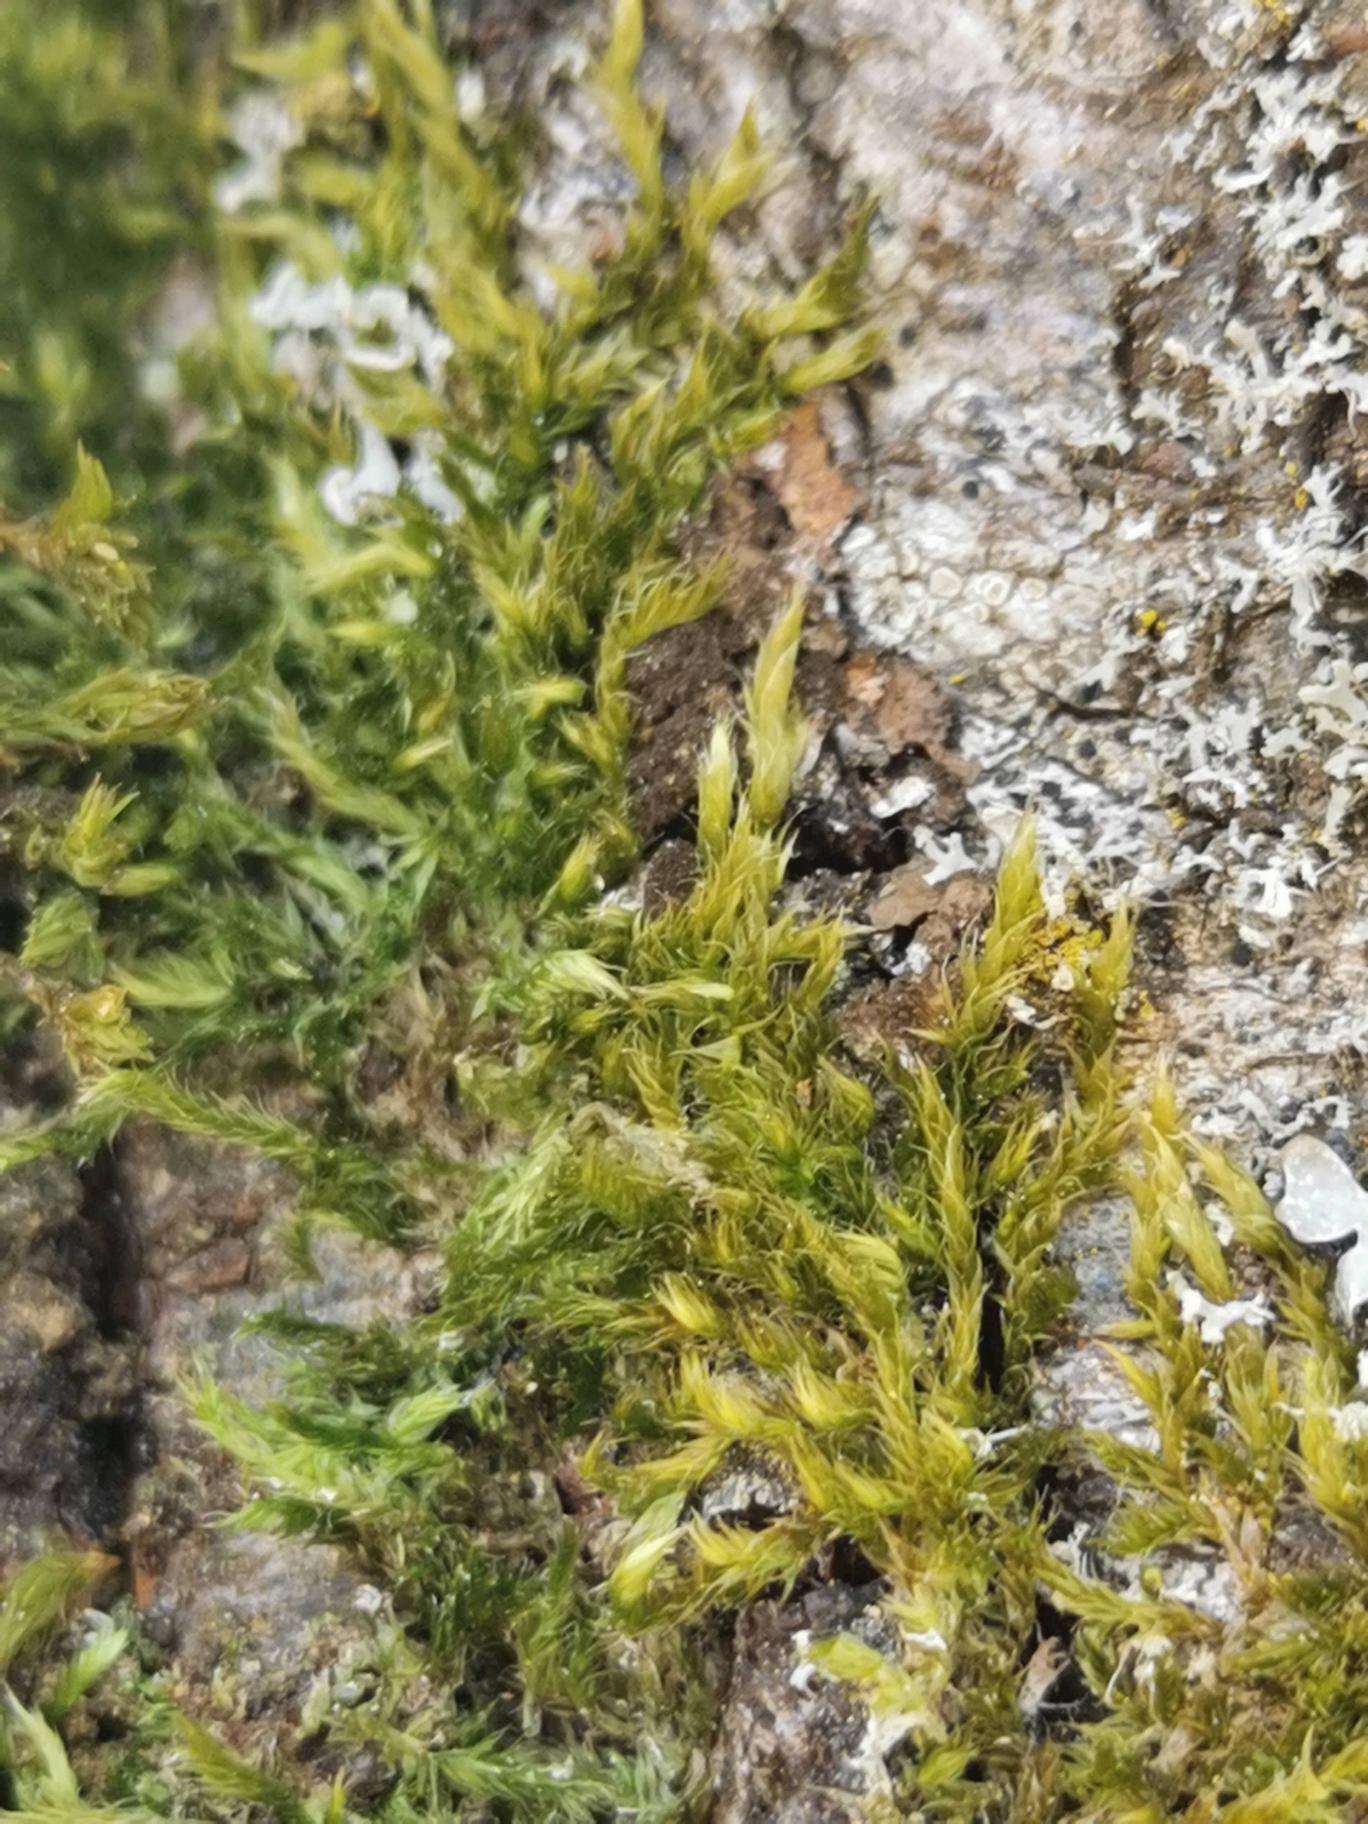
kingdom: Plantae
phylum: Bryophyta
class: Bryopsida
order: Hypnales
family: Hypnaceae
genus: Hypnum
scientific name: Hypnum cupressiforme
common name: Almindelig cypresmos
